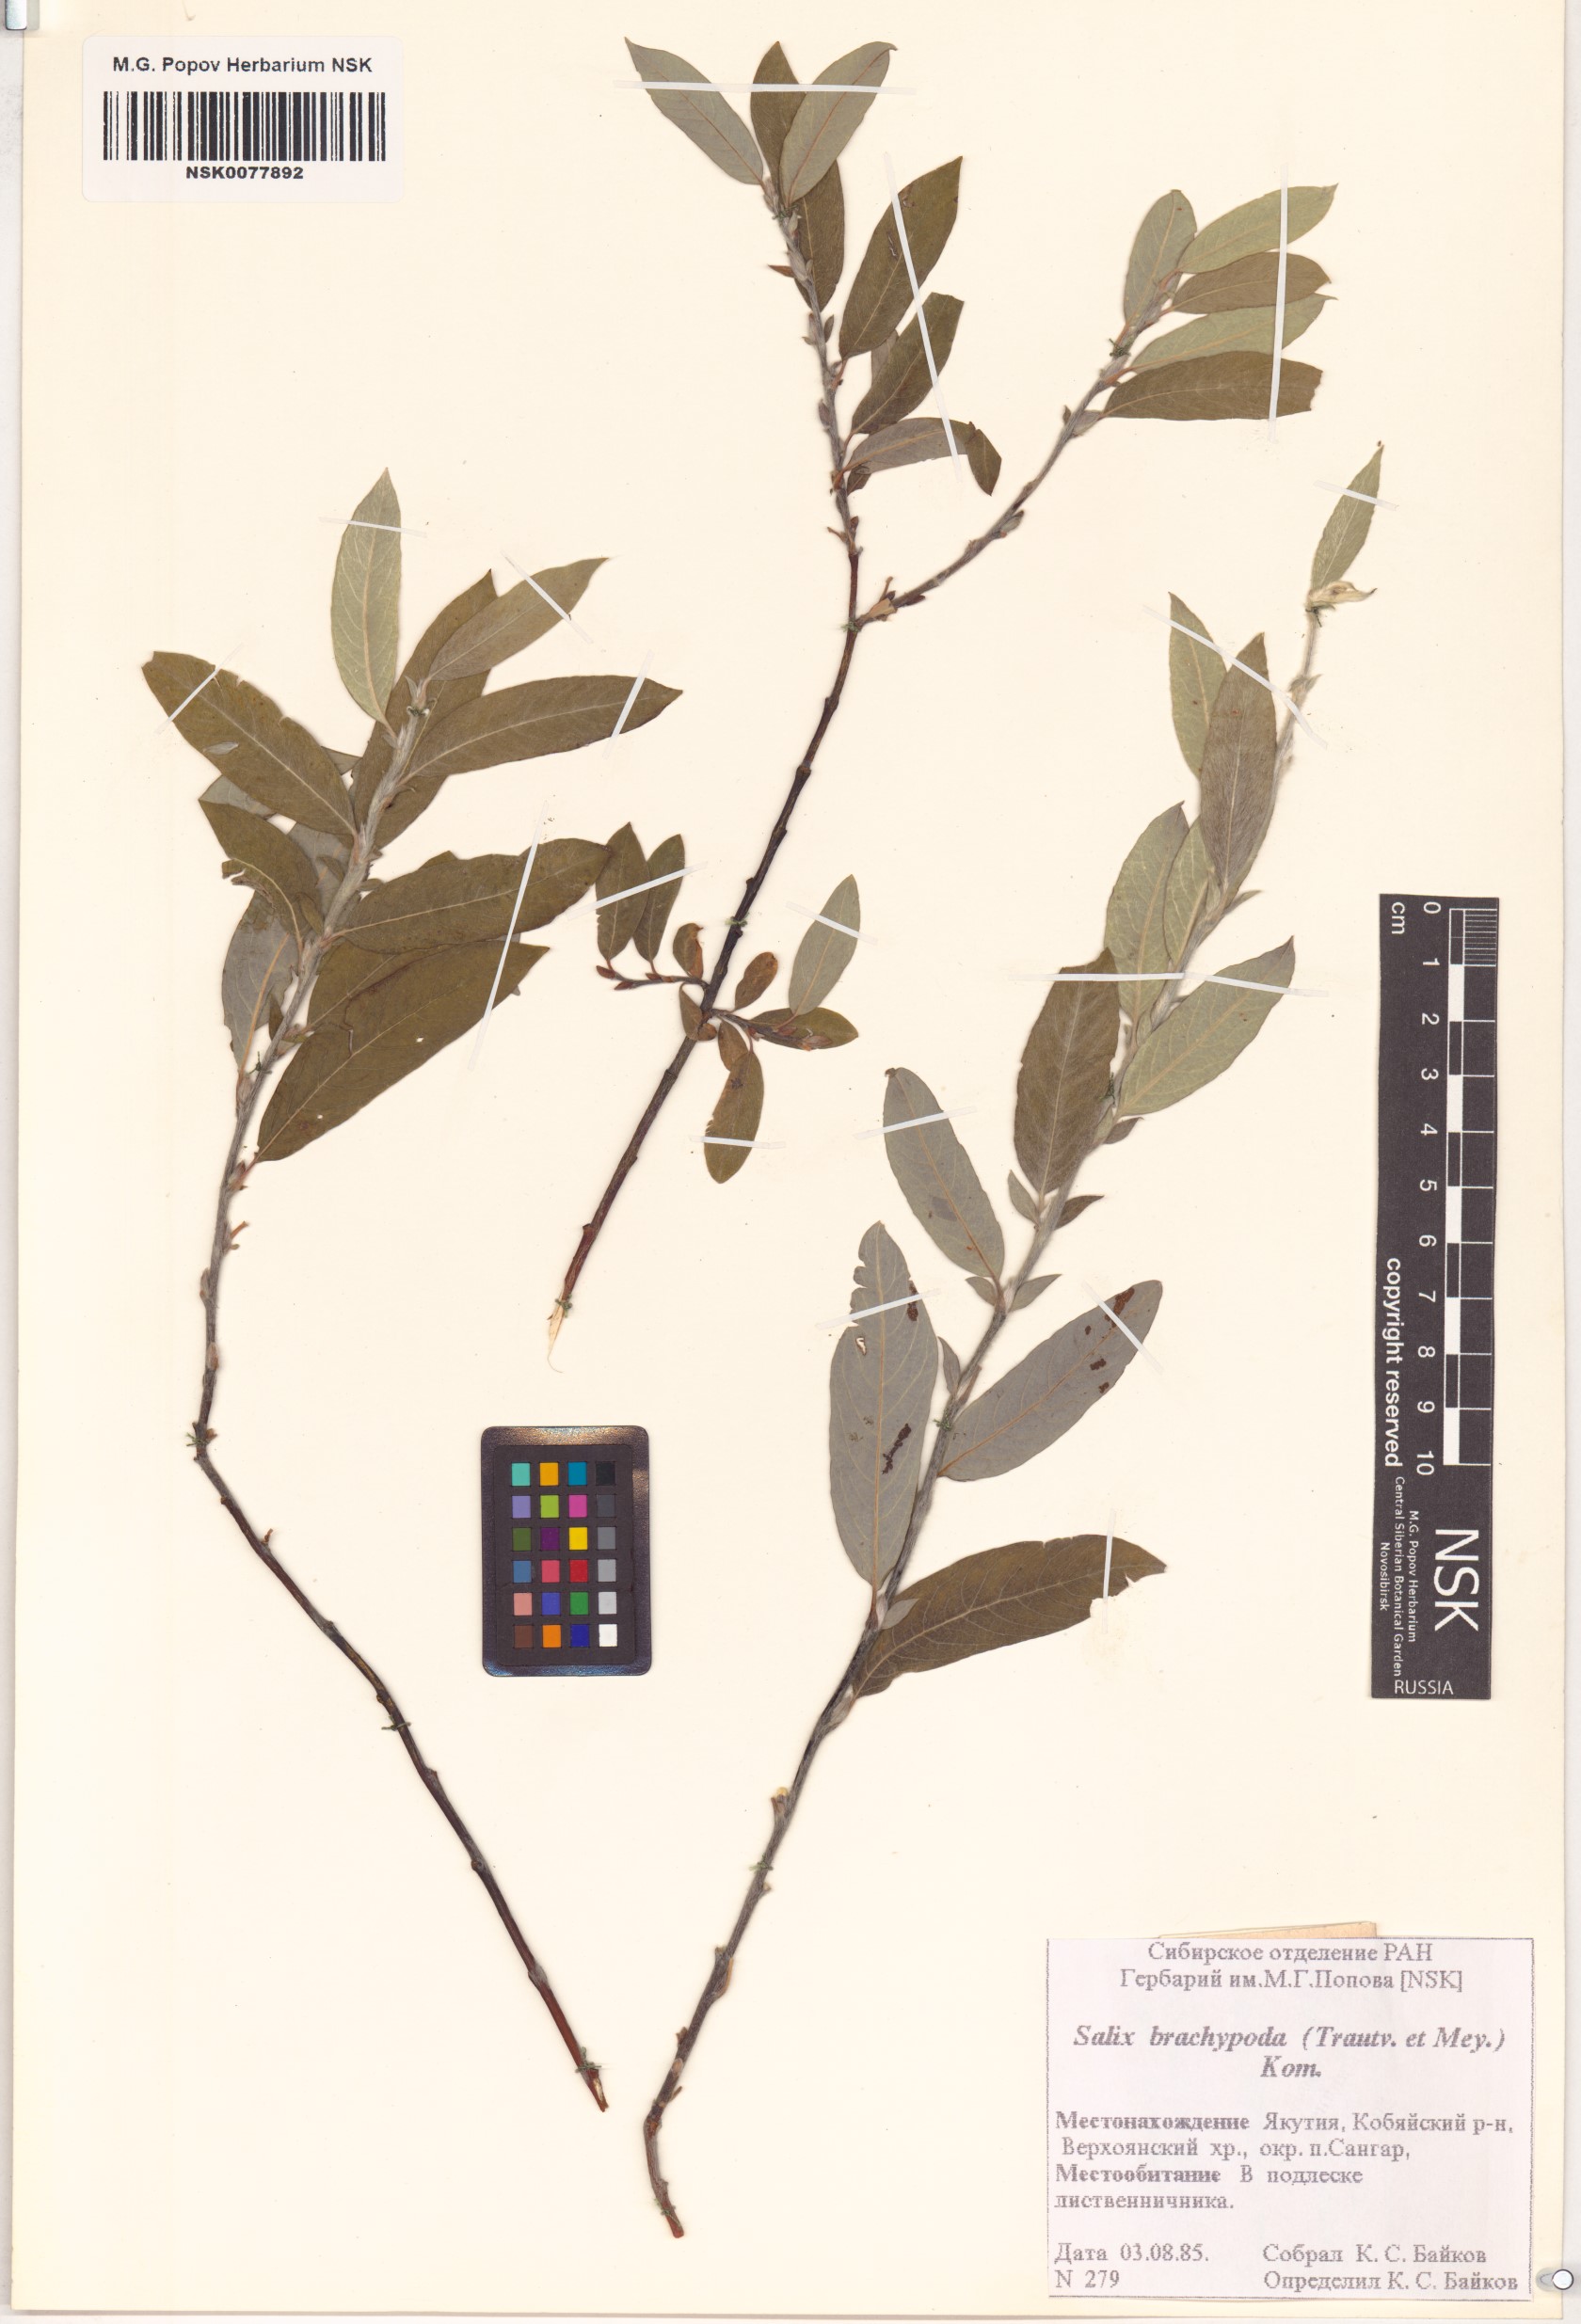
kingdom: Plantae
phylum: Tracheophyta
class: Magnoliopsida
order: Malpighiales
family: Salicaceae
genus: Salix
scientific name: Salix brachypoda
